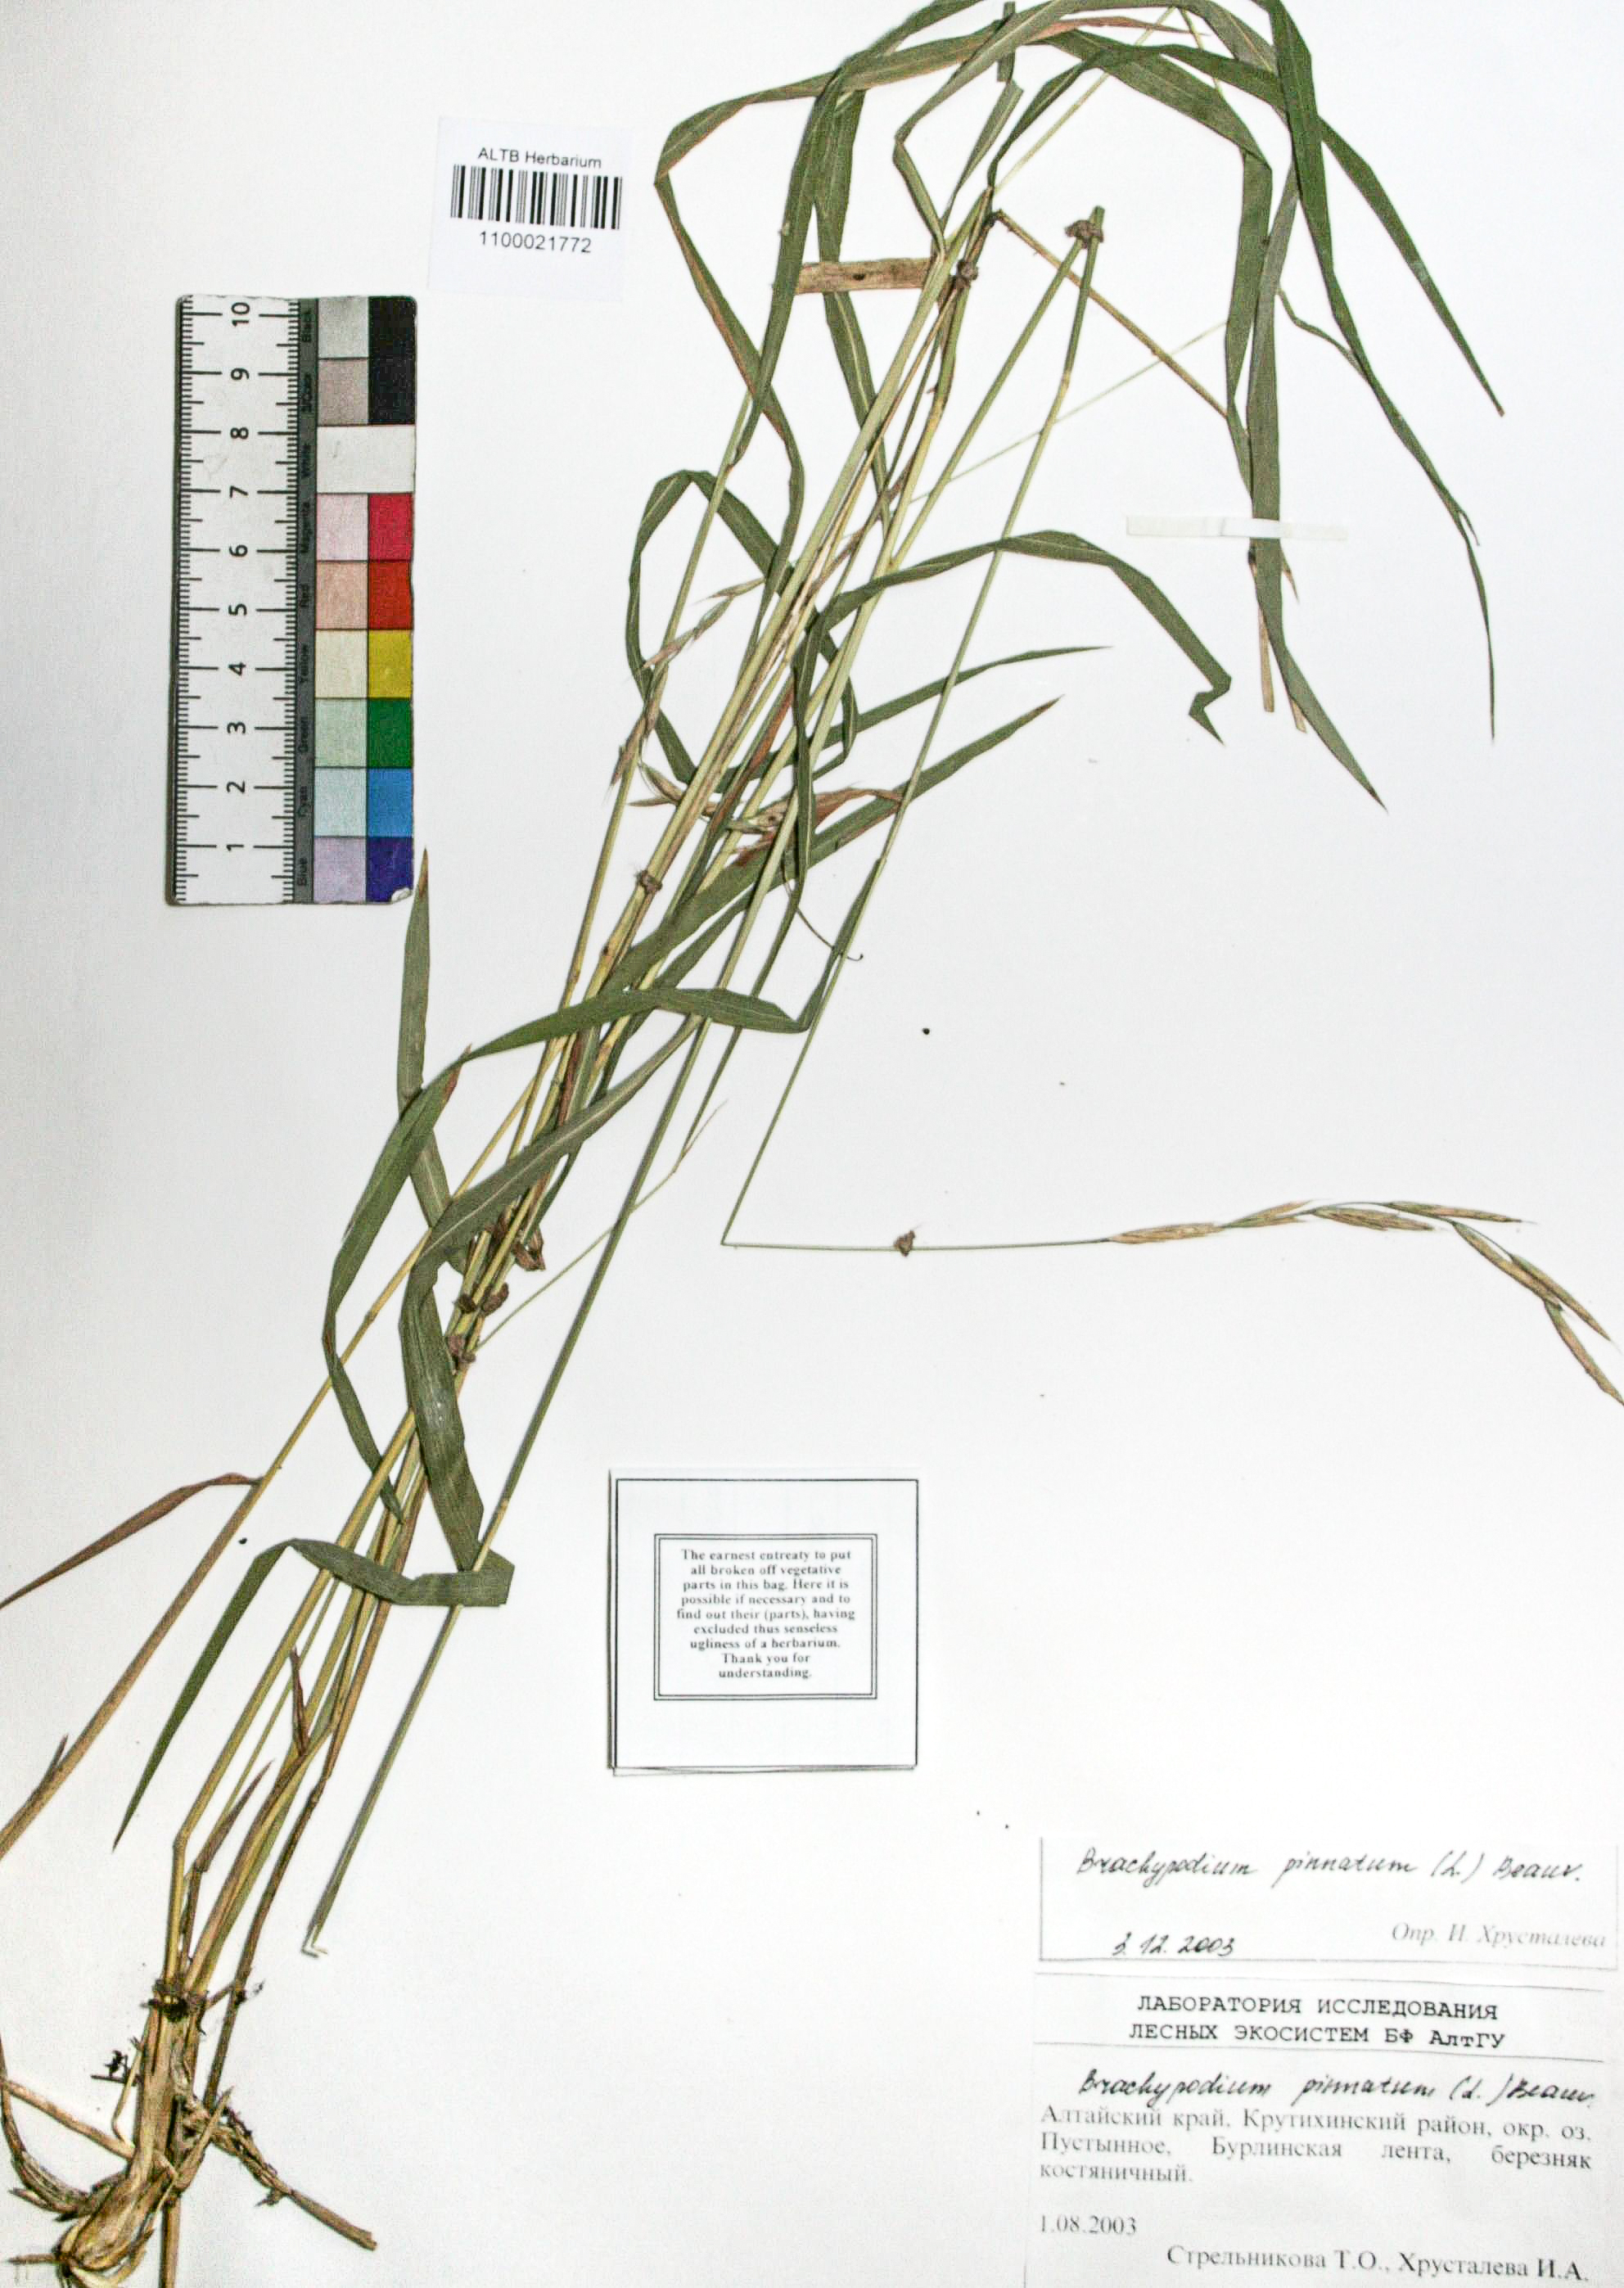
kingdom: Plantae
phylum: Tracheophyta
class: Liliopsida
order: Poales
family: Poaceae
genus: Brachypodium
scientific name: Brachypodium pinnatum
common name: Tor grass
